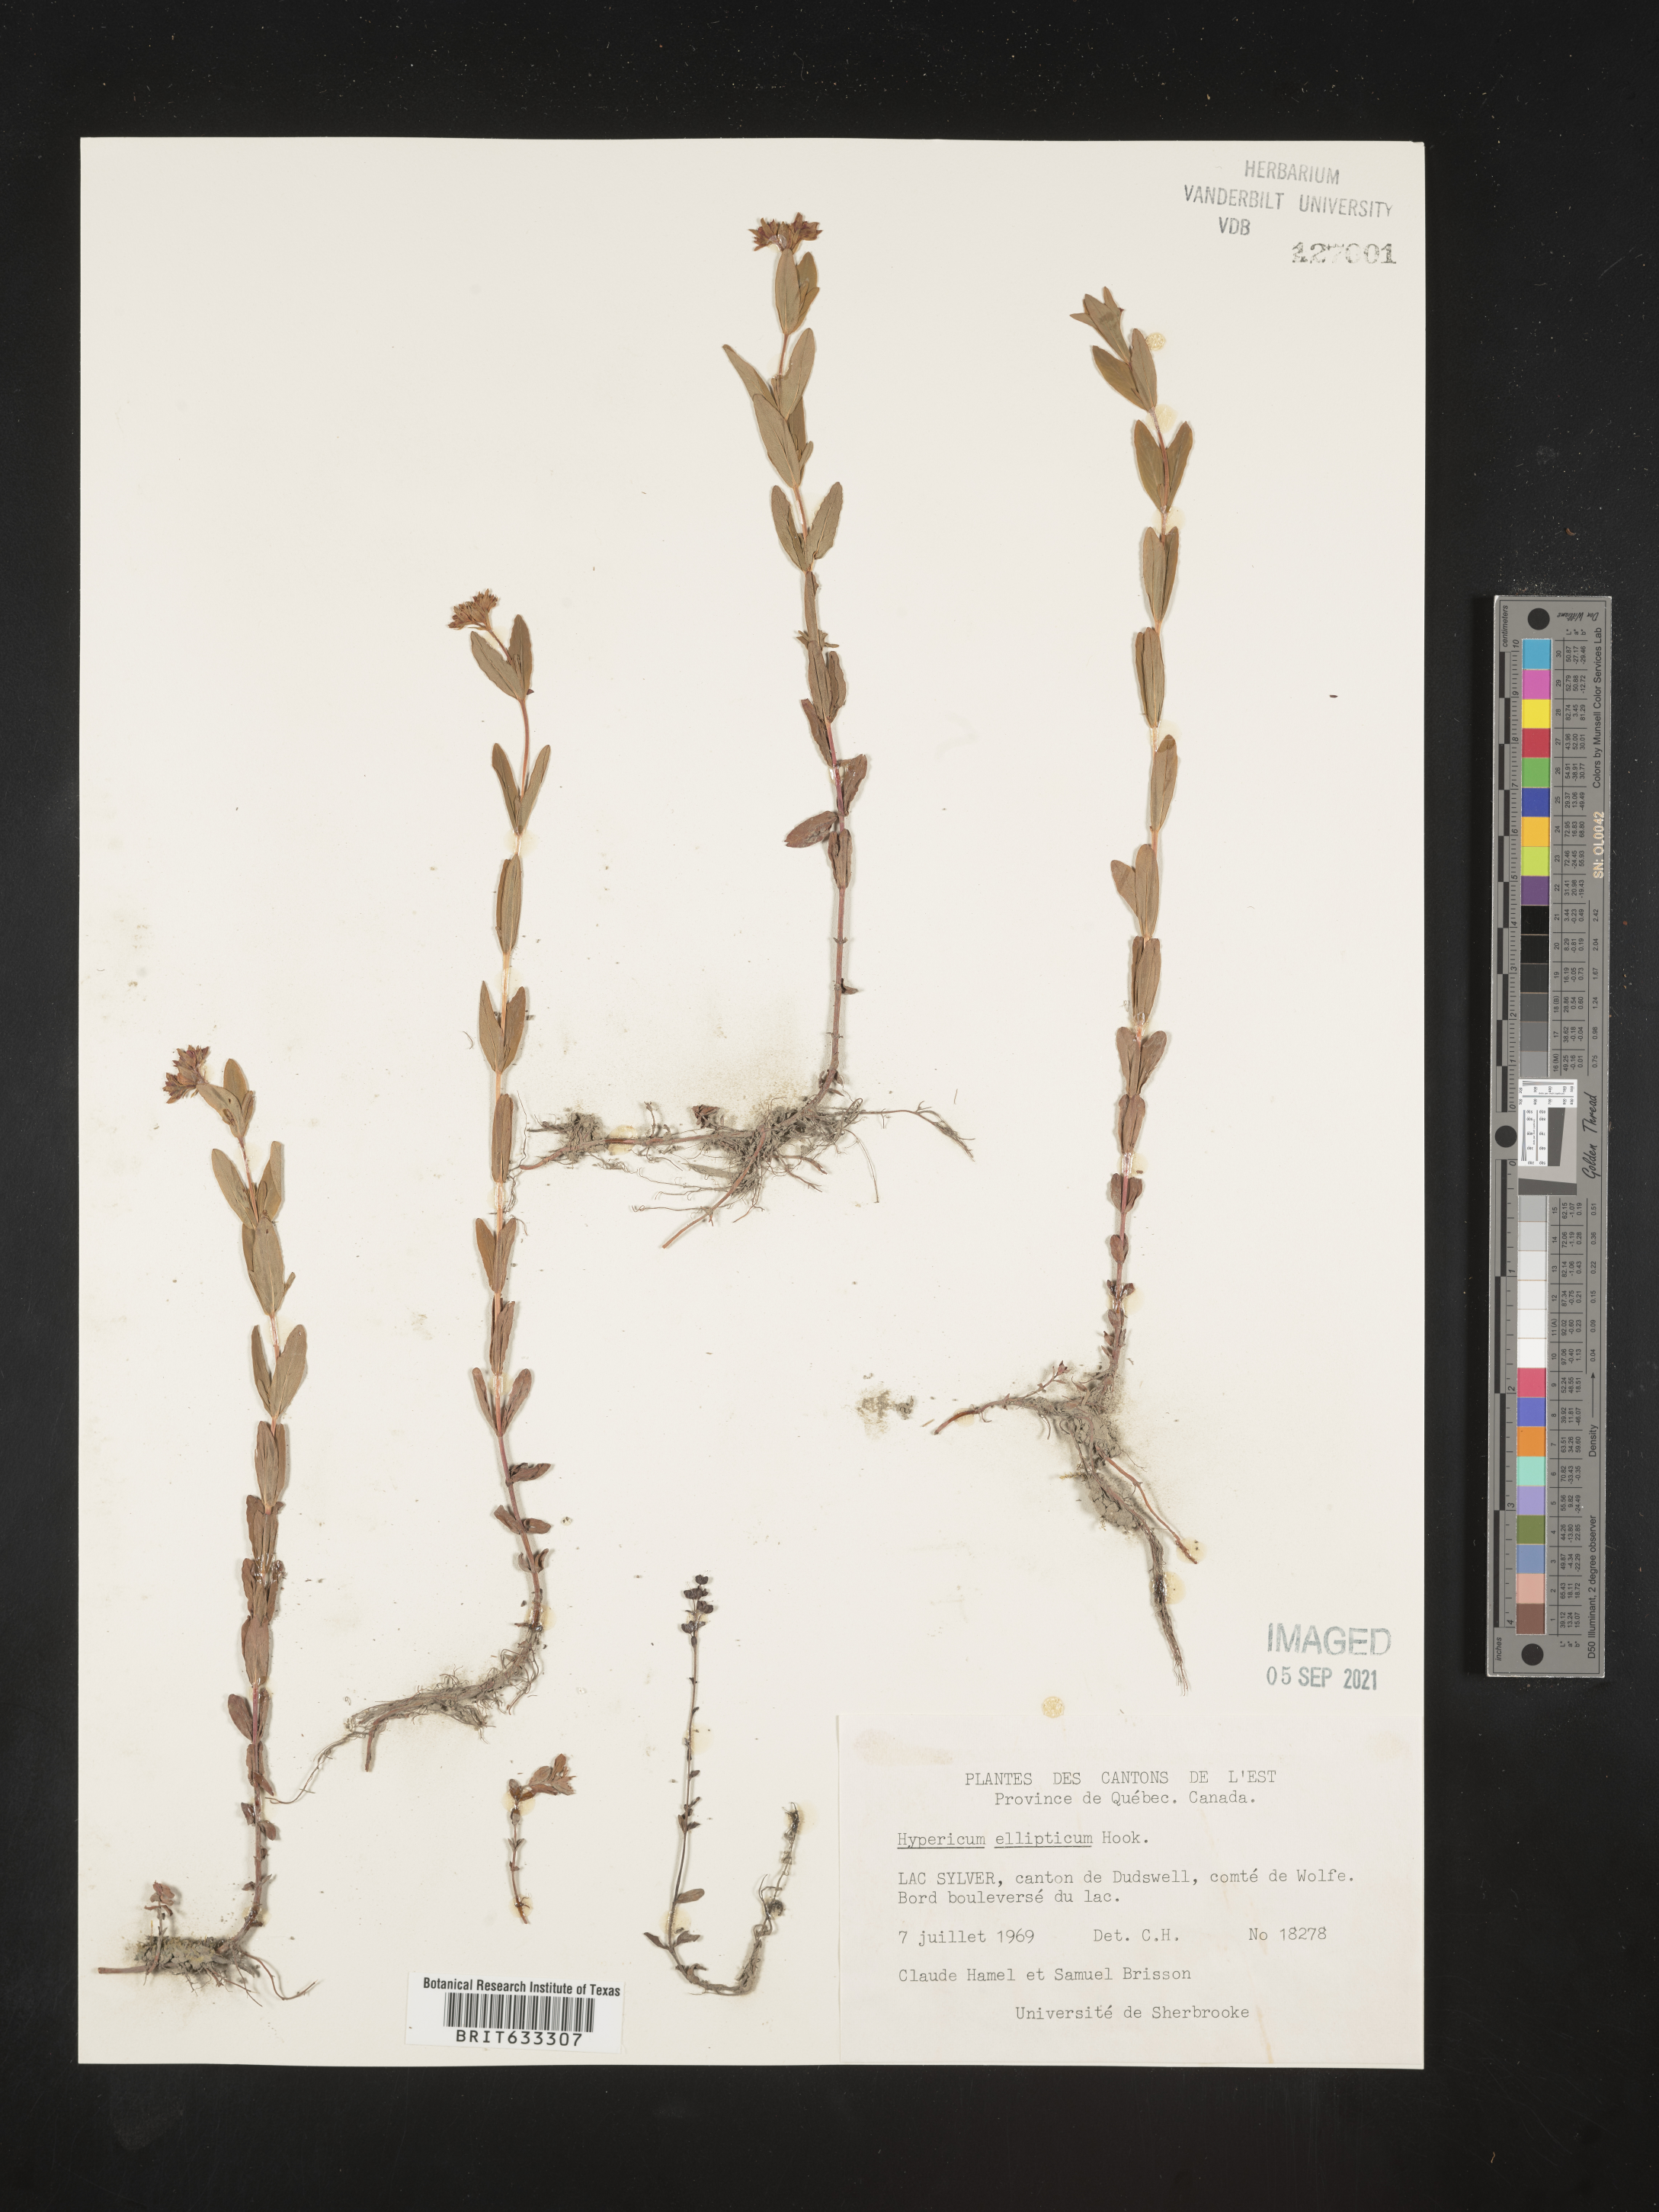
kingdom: Plantae
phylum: Tracheophyta
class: Magnoliopsida
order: Malpighiales
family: Hypericaceae
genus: Hypericum
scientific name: Hypericum
